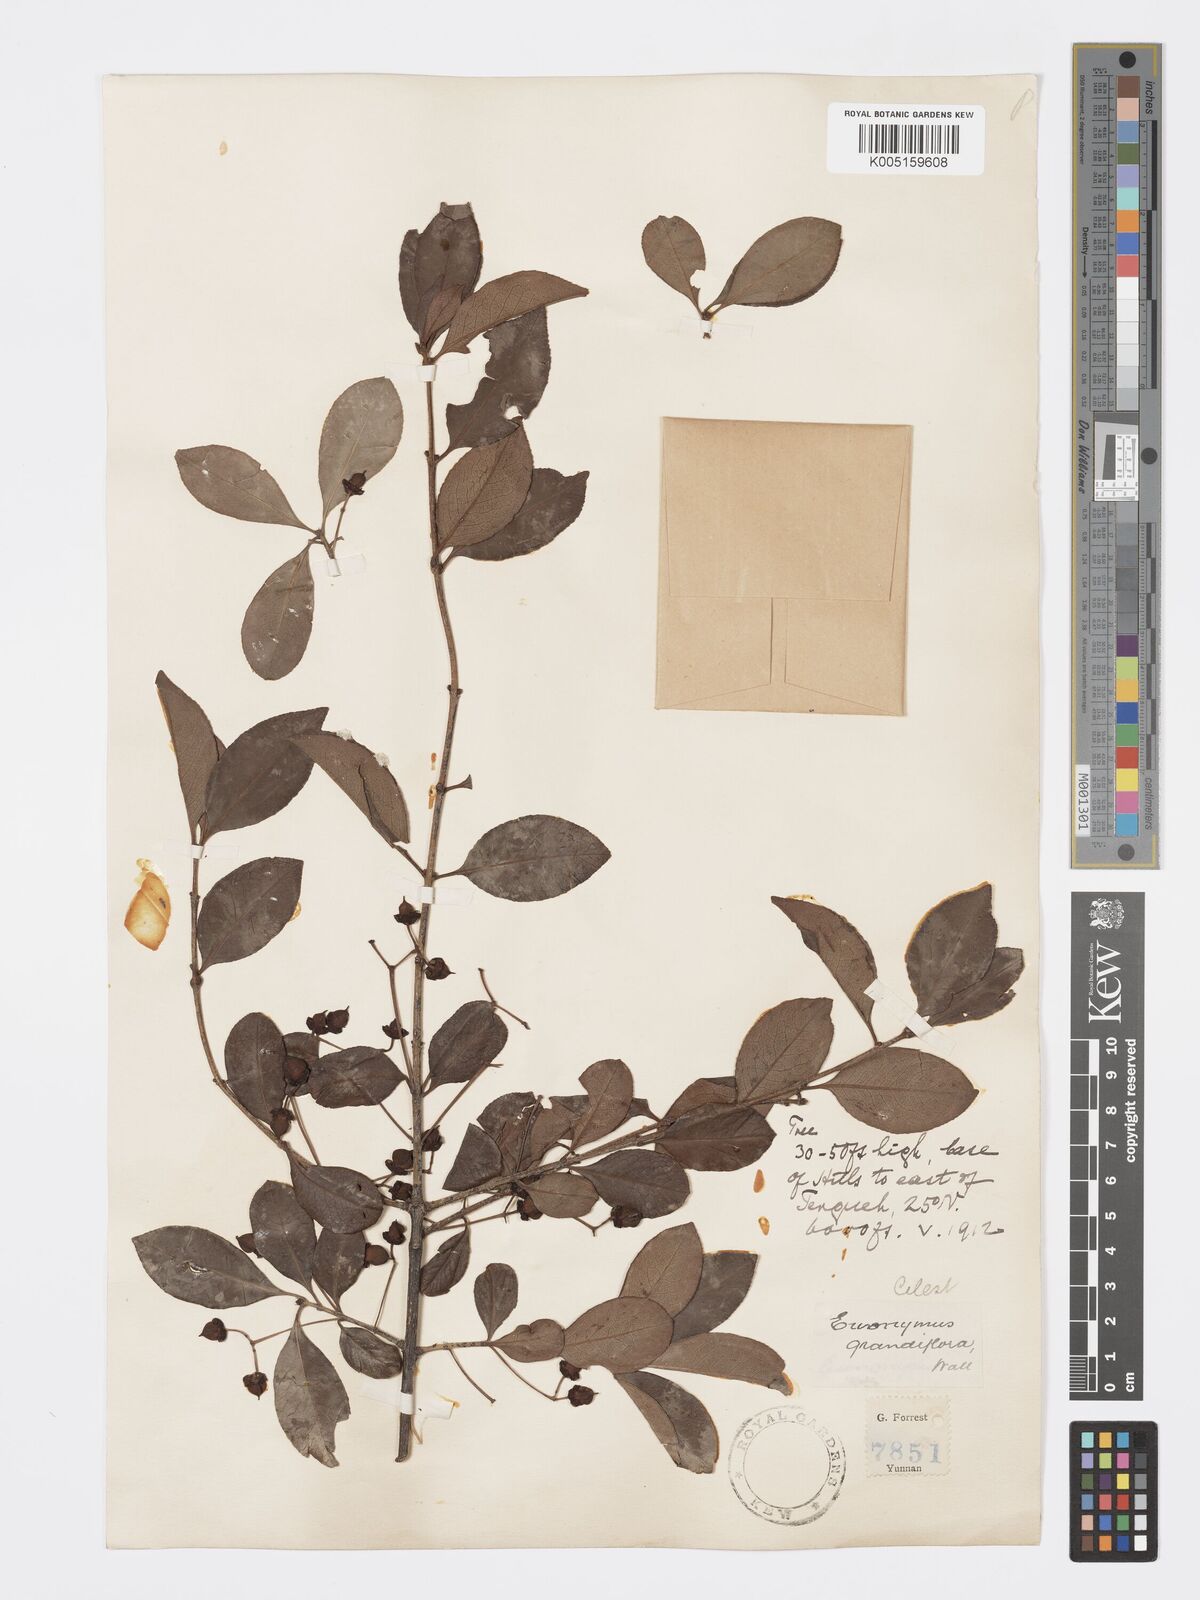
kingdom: Plantae
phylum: Tracheophyta
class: Magnoliopsida
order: Celastrales
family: Celastraceae
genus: Euonymus
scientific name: Euonymus grandiflorus
